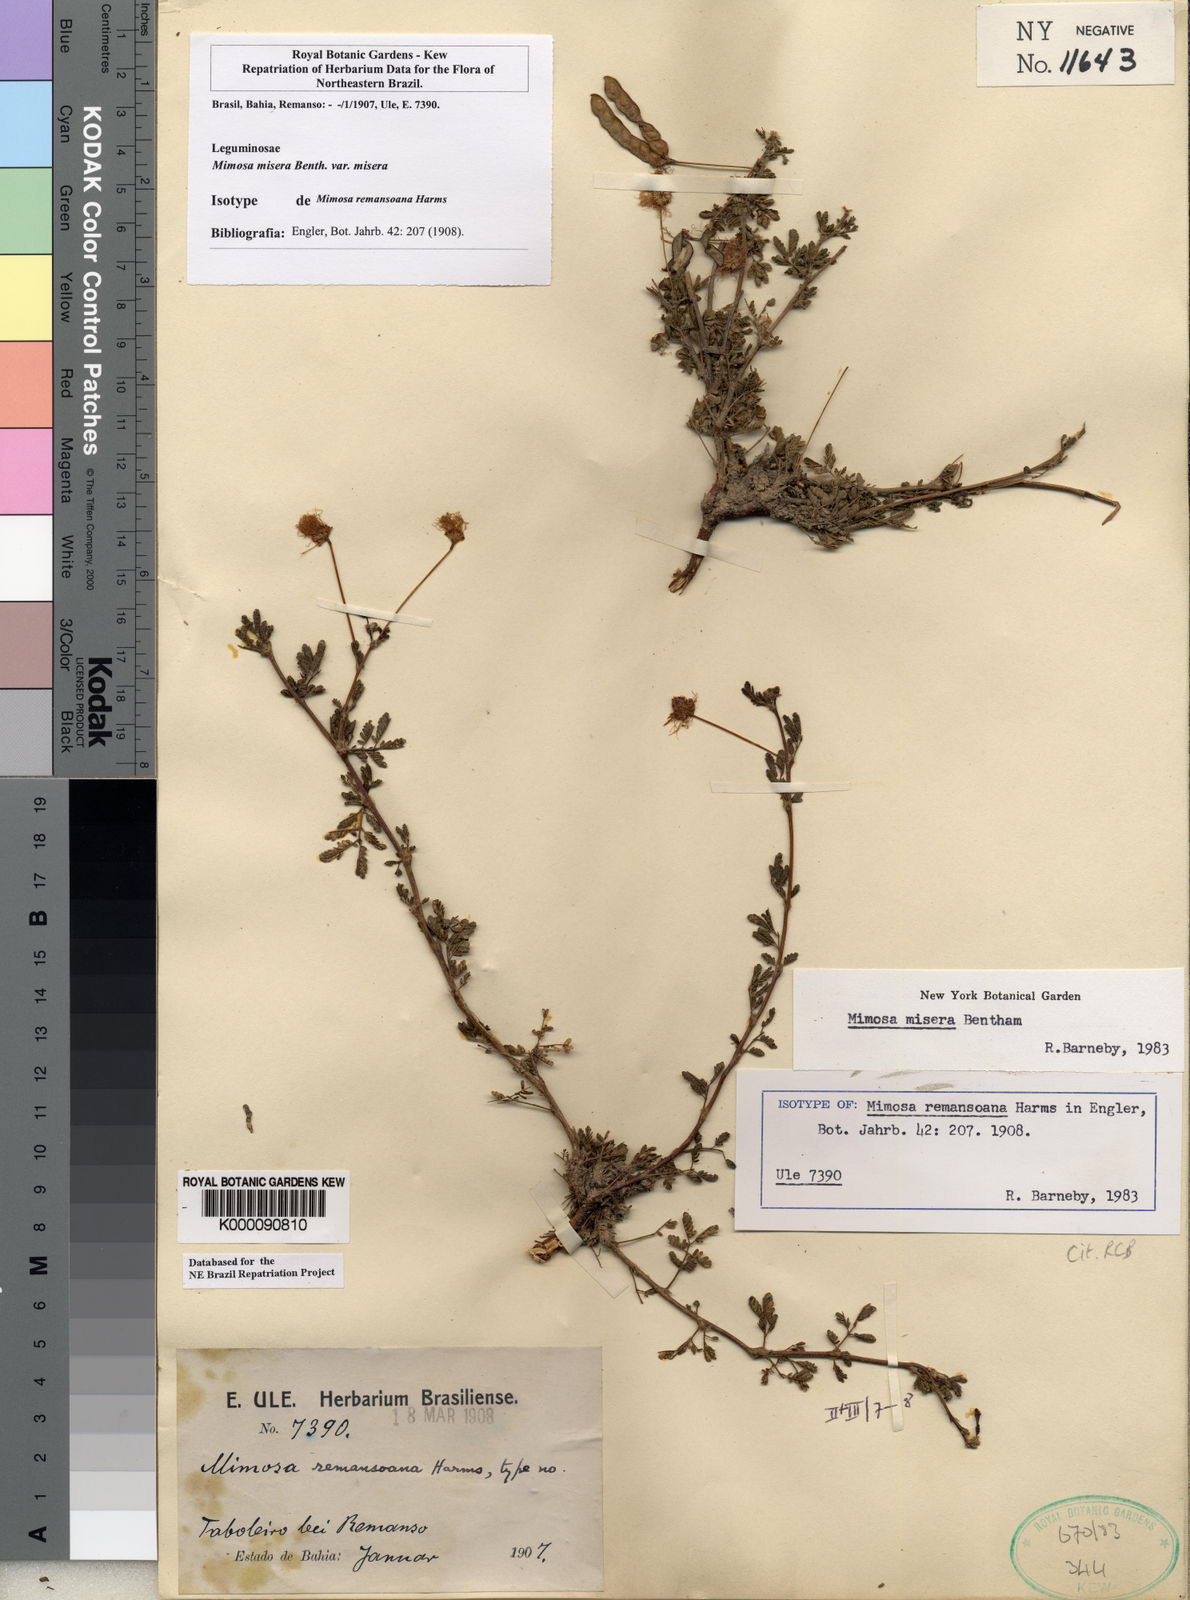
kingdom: Plantae
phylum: Tracheophyta
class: Magnoliopsida
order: Fabales
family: Fabaceae
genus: Mimosa
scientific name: Mimosa misera
